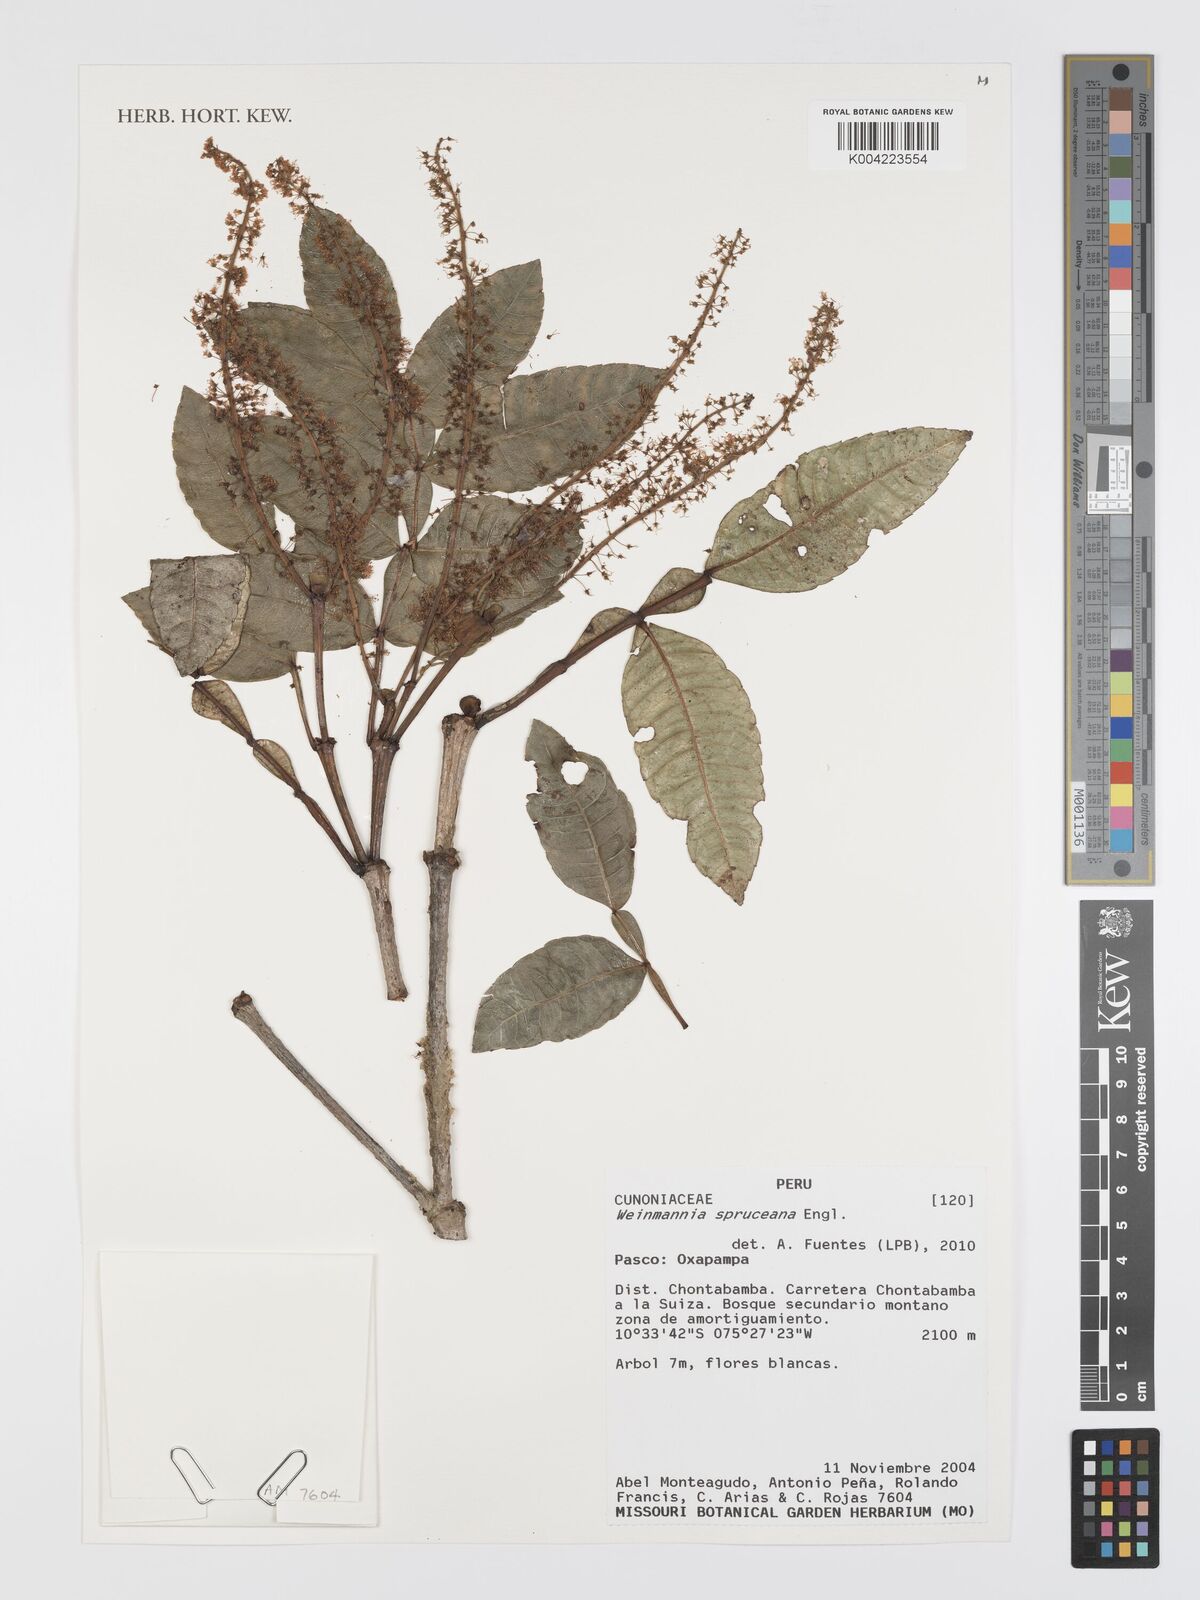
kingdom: Plantae
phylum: Tracheophyta
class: Magnoliopsida
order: Oxalidales
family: Cunoniaceae
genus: Weinmannia
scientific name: Weinmannia spruceana
